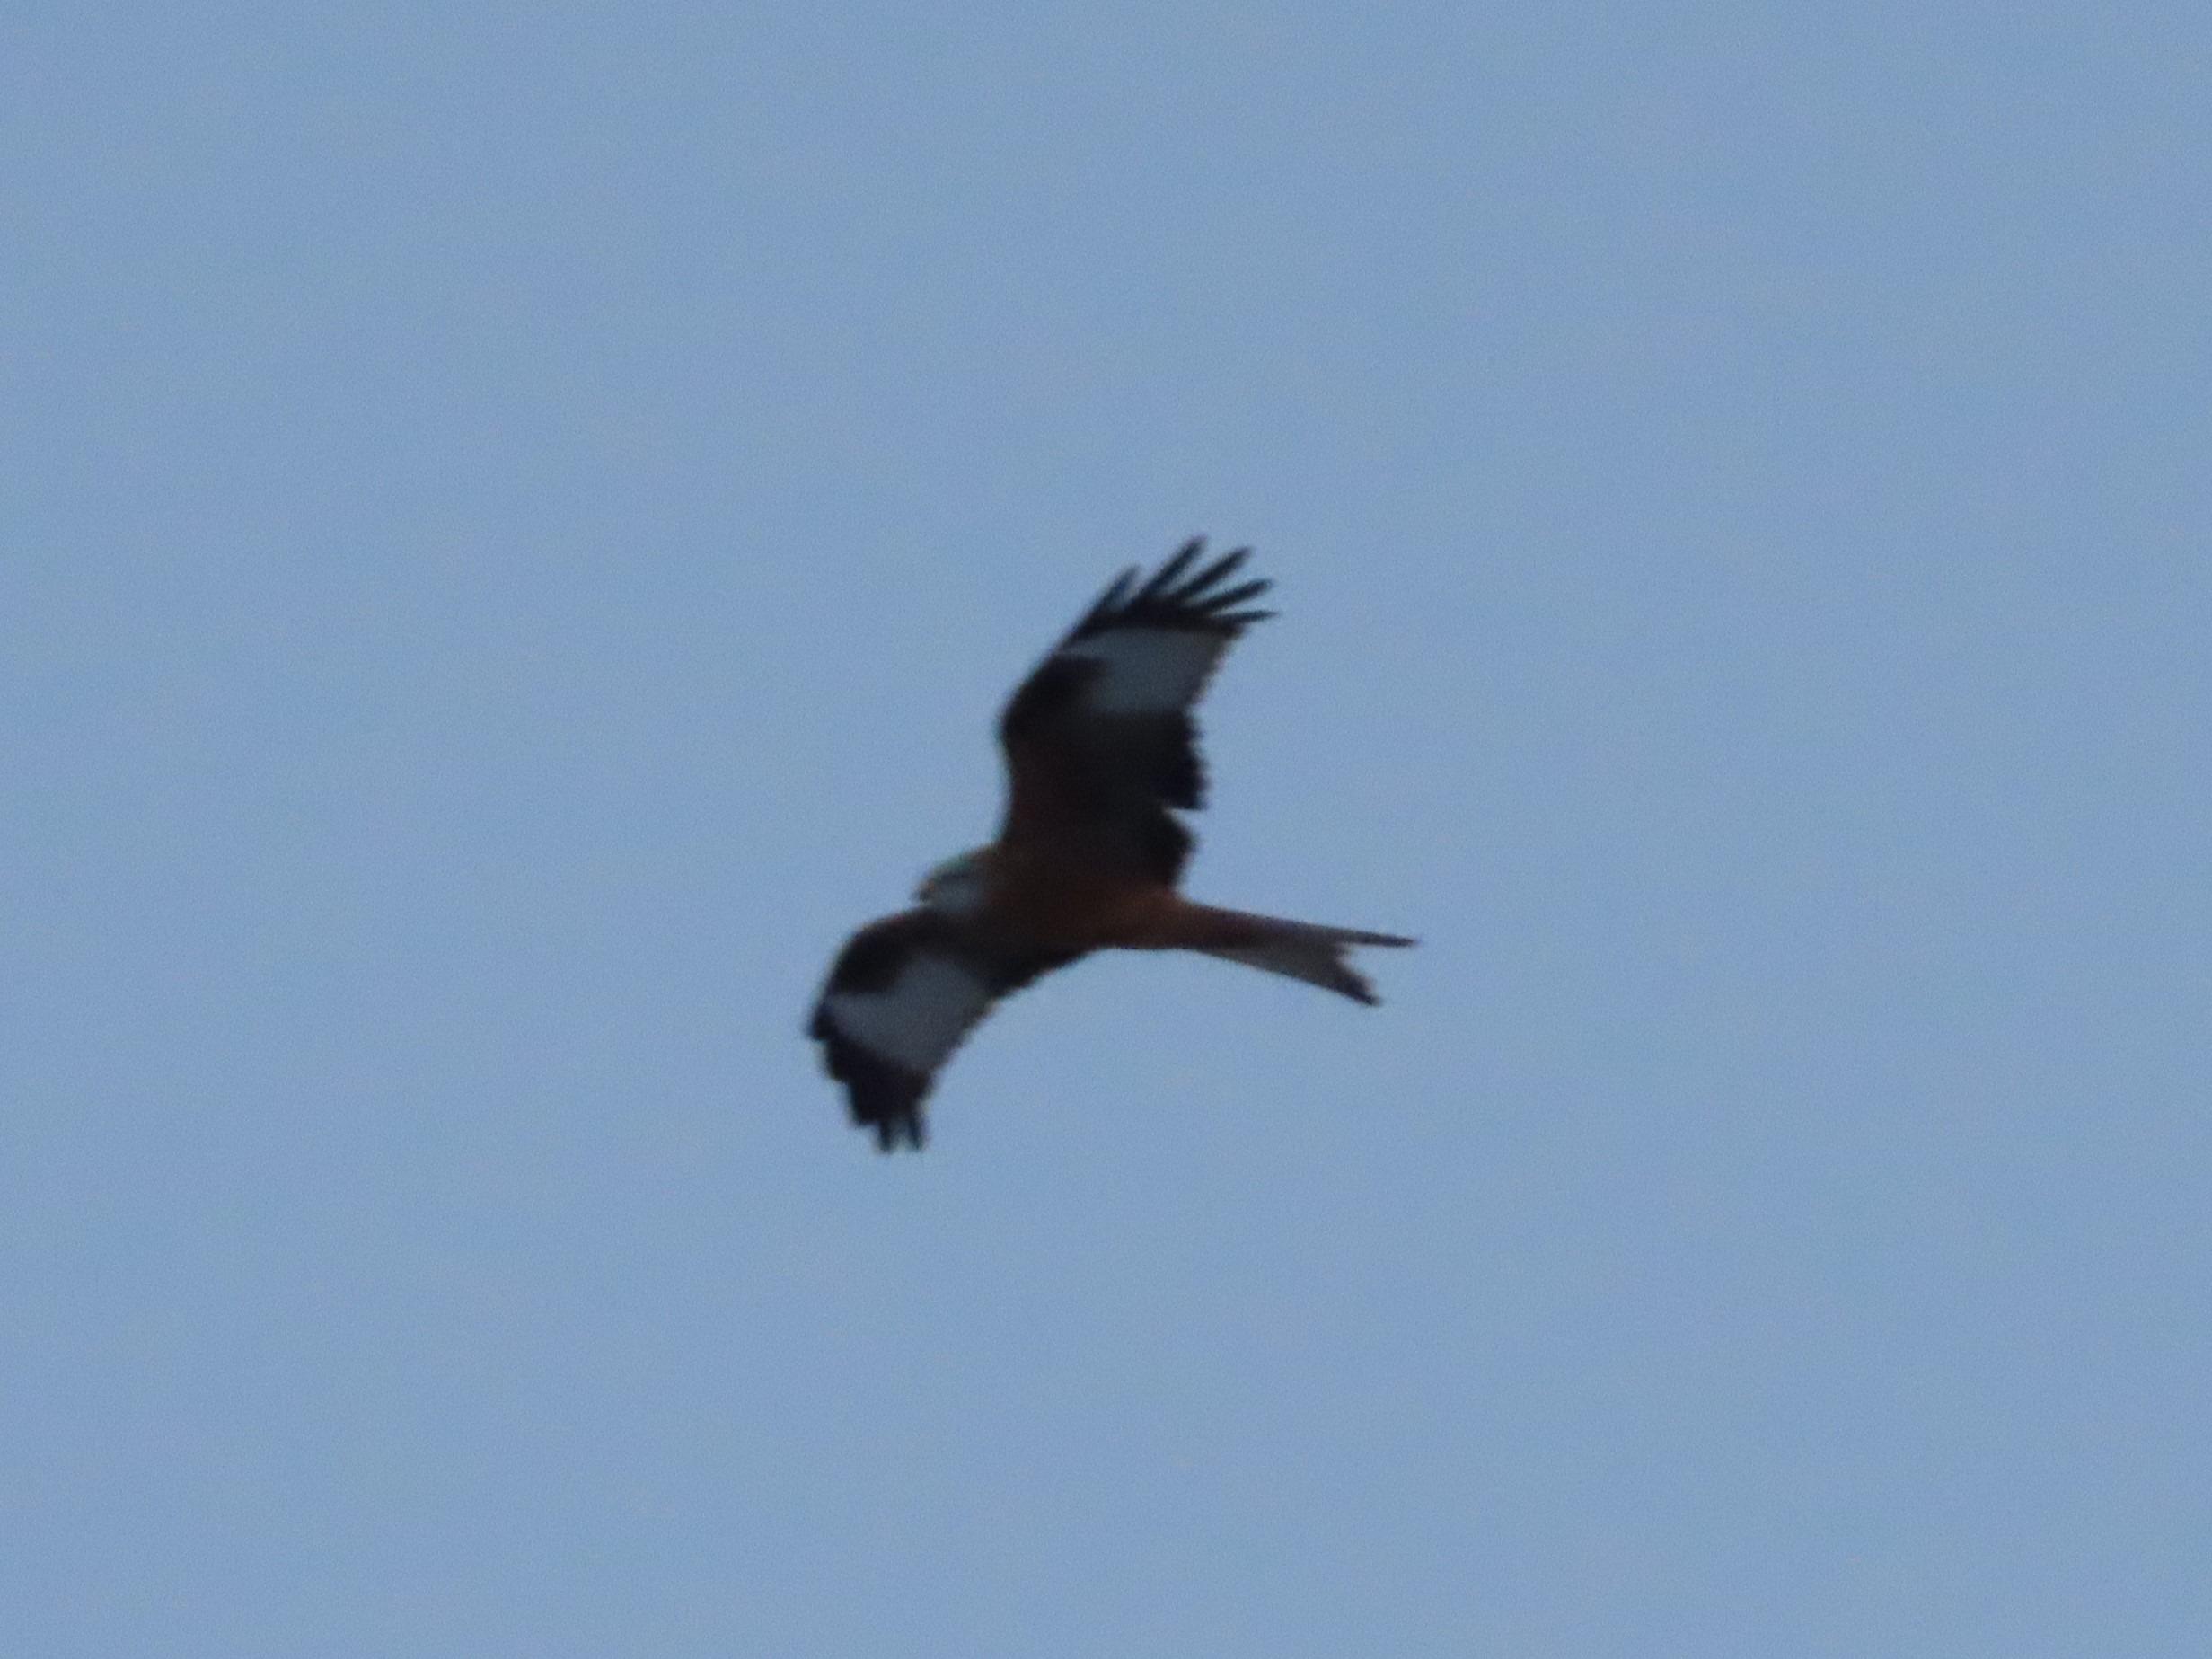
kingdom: Animalia
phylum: Chordata
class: Aves
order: Accipitriformes
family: Accipitridae
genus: Milvus
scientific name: Milvus milvus
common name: Rød glente
